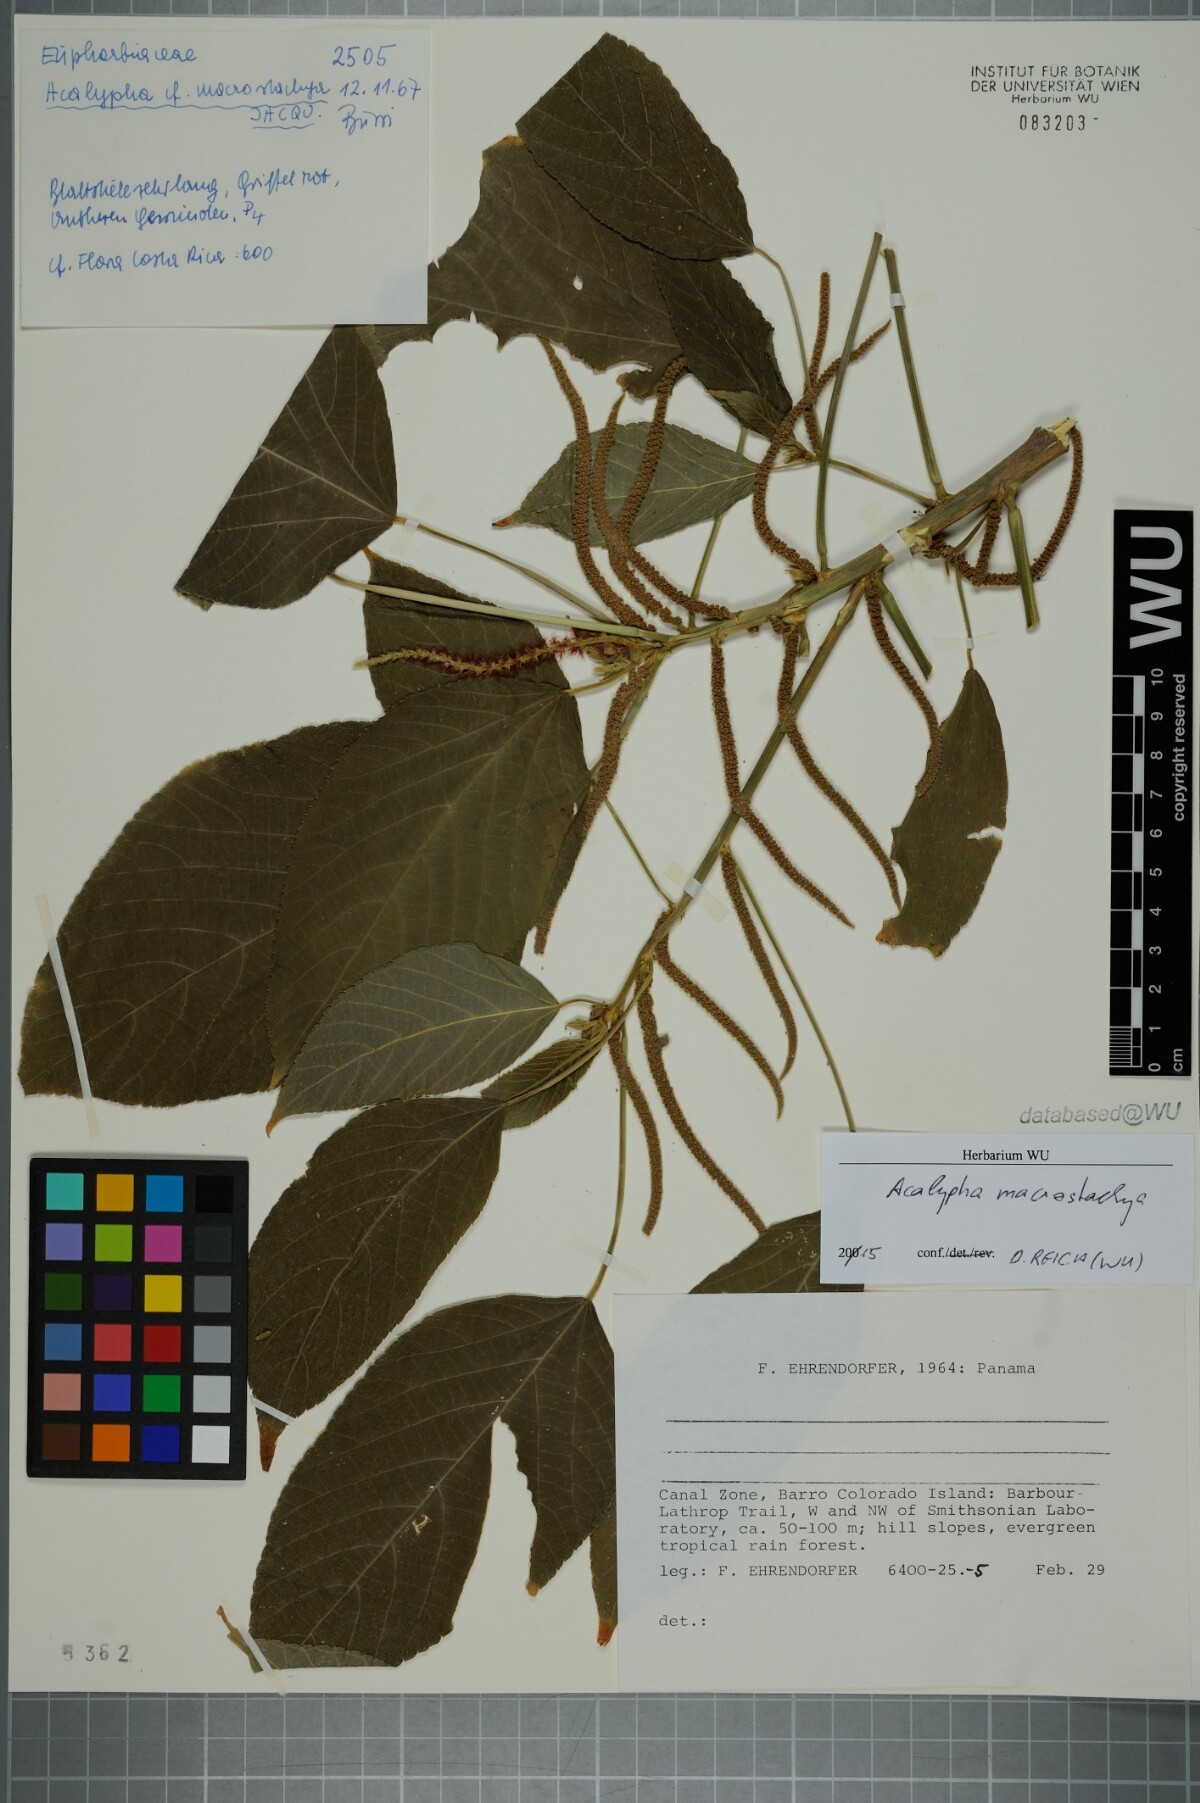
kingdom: Plantae
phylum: Tracheophyta
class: Magnoliopsida
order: Malpighiales
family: Euphorbiaceae
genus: Acalypha
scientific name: Acalypha macrostachya
